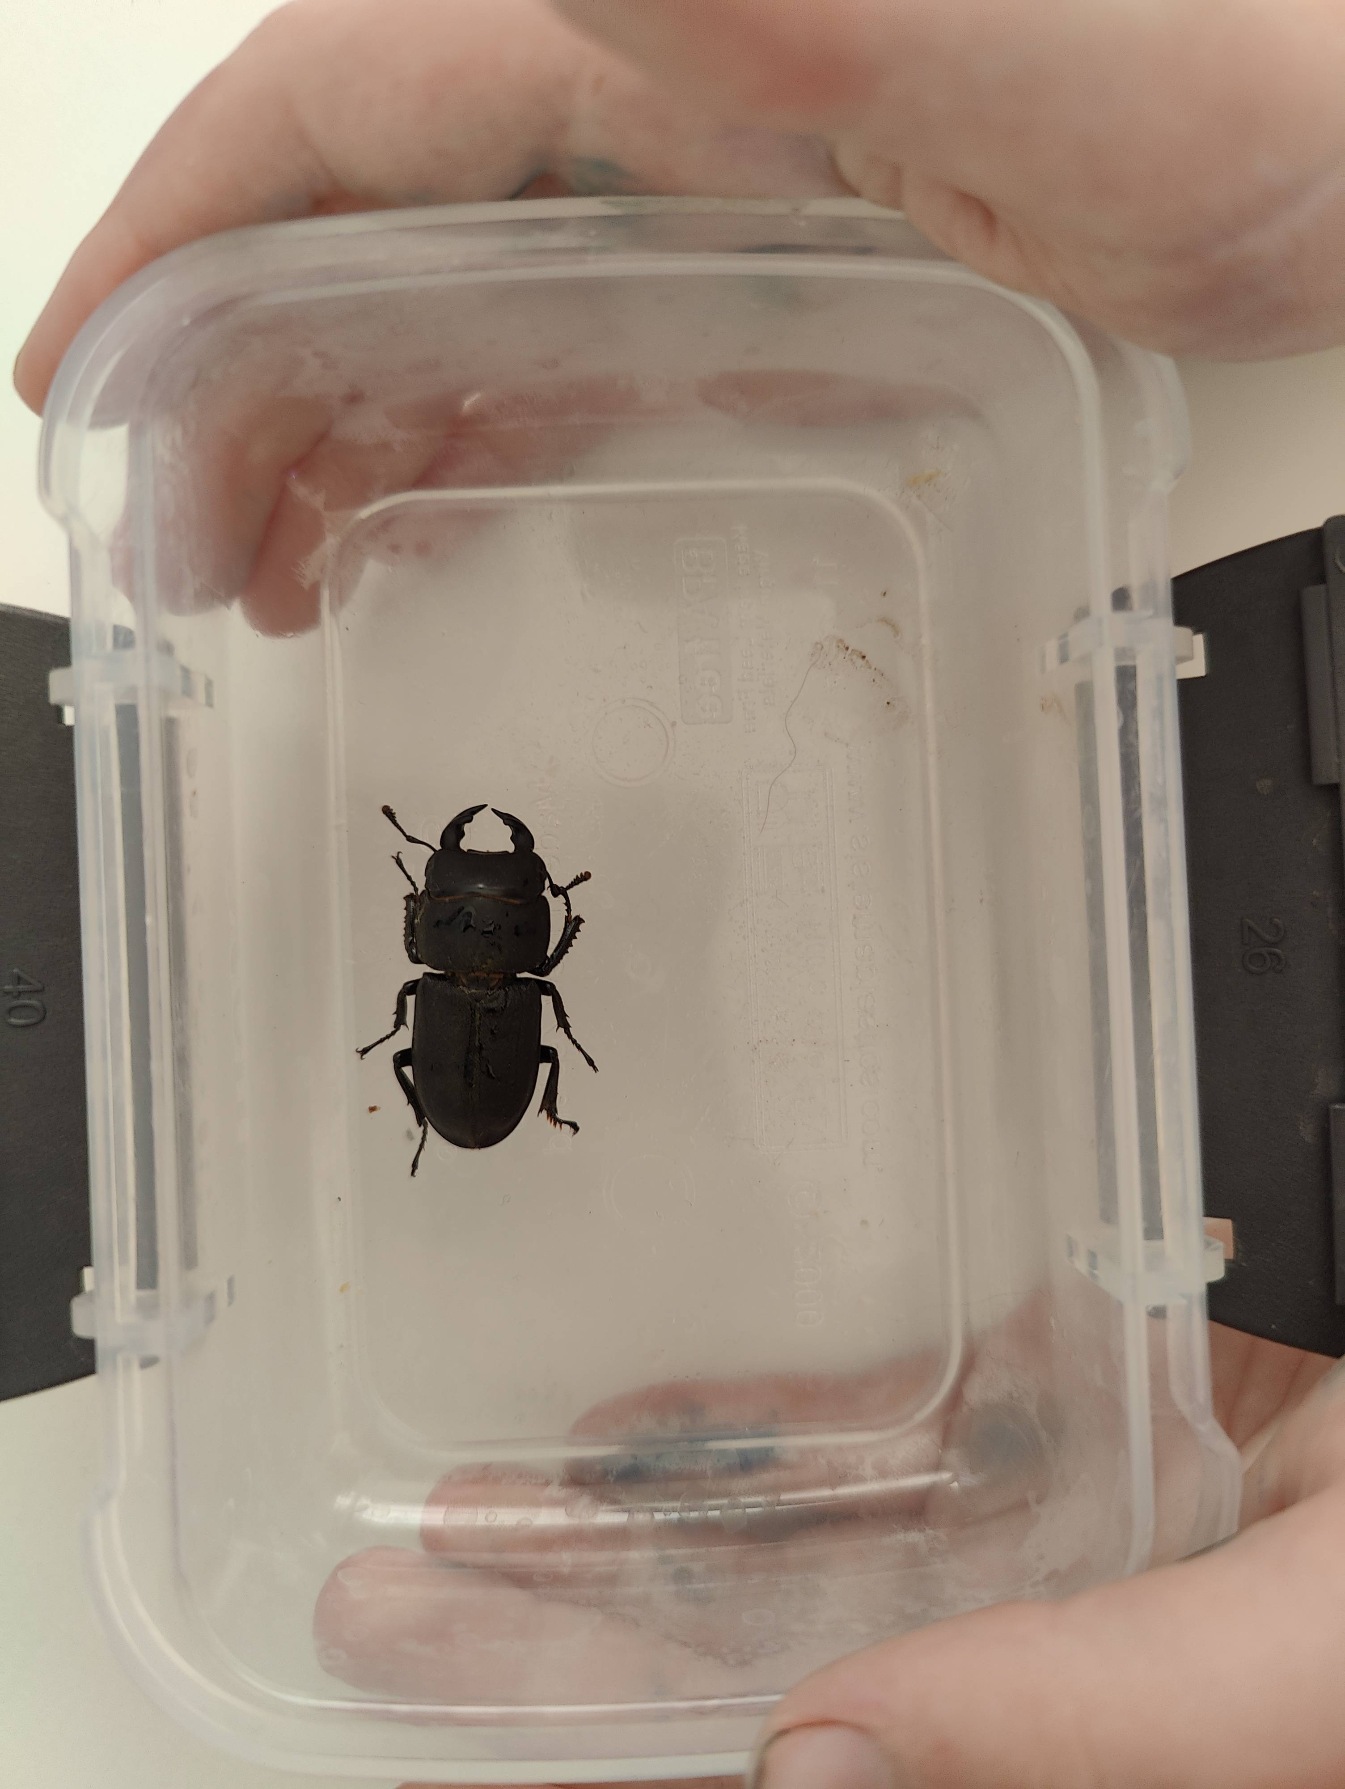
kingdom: Animalia
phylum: Arthropoda
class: Insecta
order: Coleoptera
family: Lucanidae
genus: Dorcus
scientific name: Dorcus parallelipipedus
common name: Bøghjort
